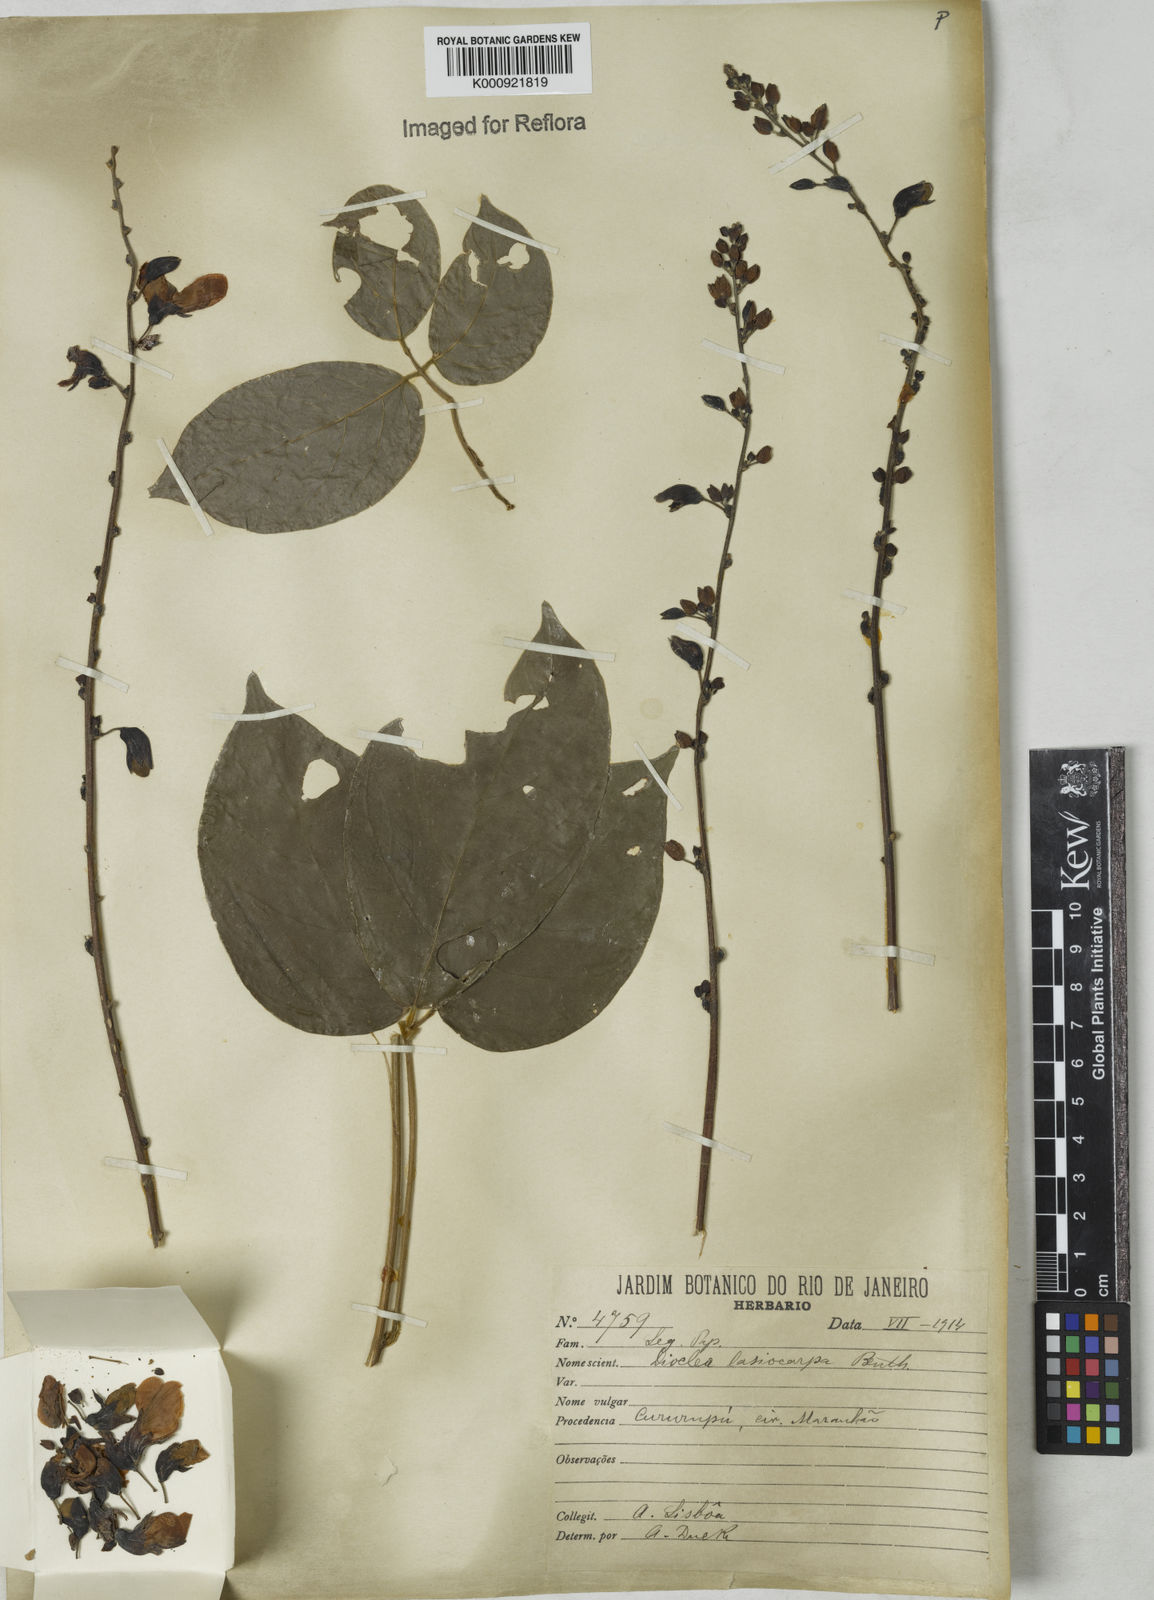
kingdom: Plantae
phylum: Tracheophyta
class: Magnoliopsida
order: Fabales
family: Fabaceae
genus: Dioclea
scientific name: Dioclea virgata
